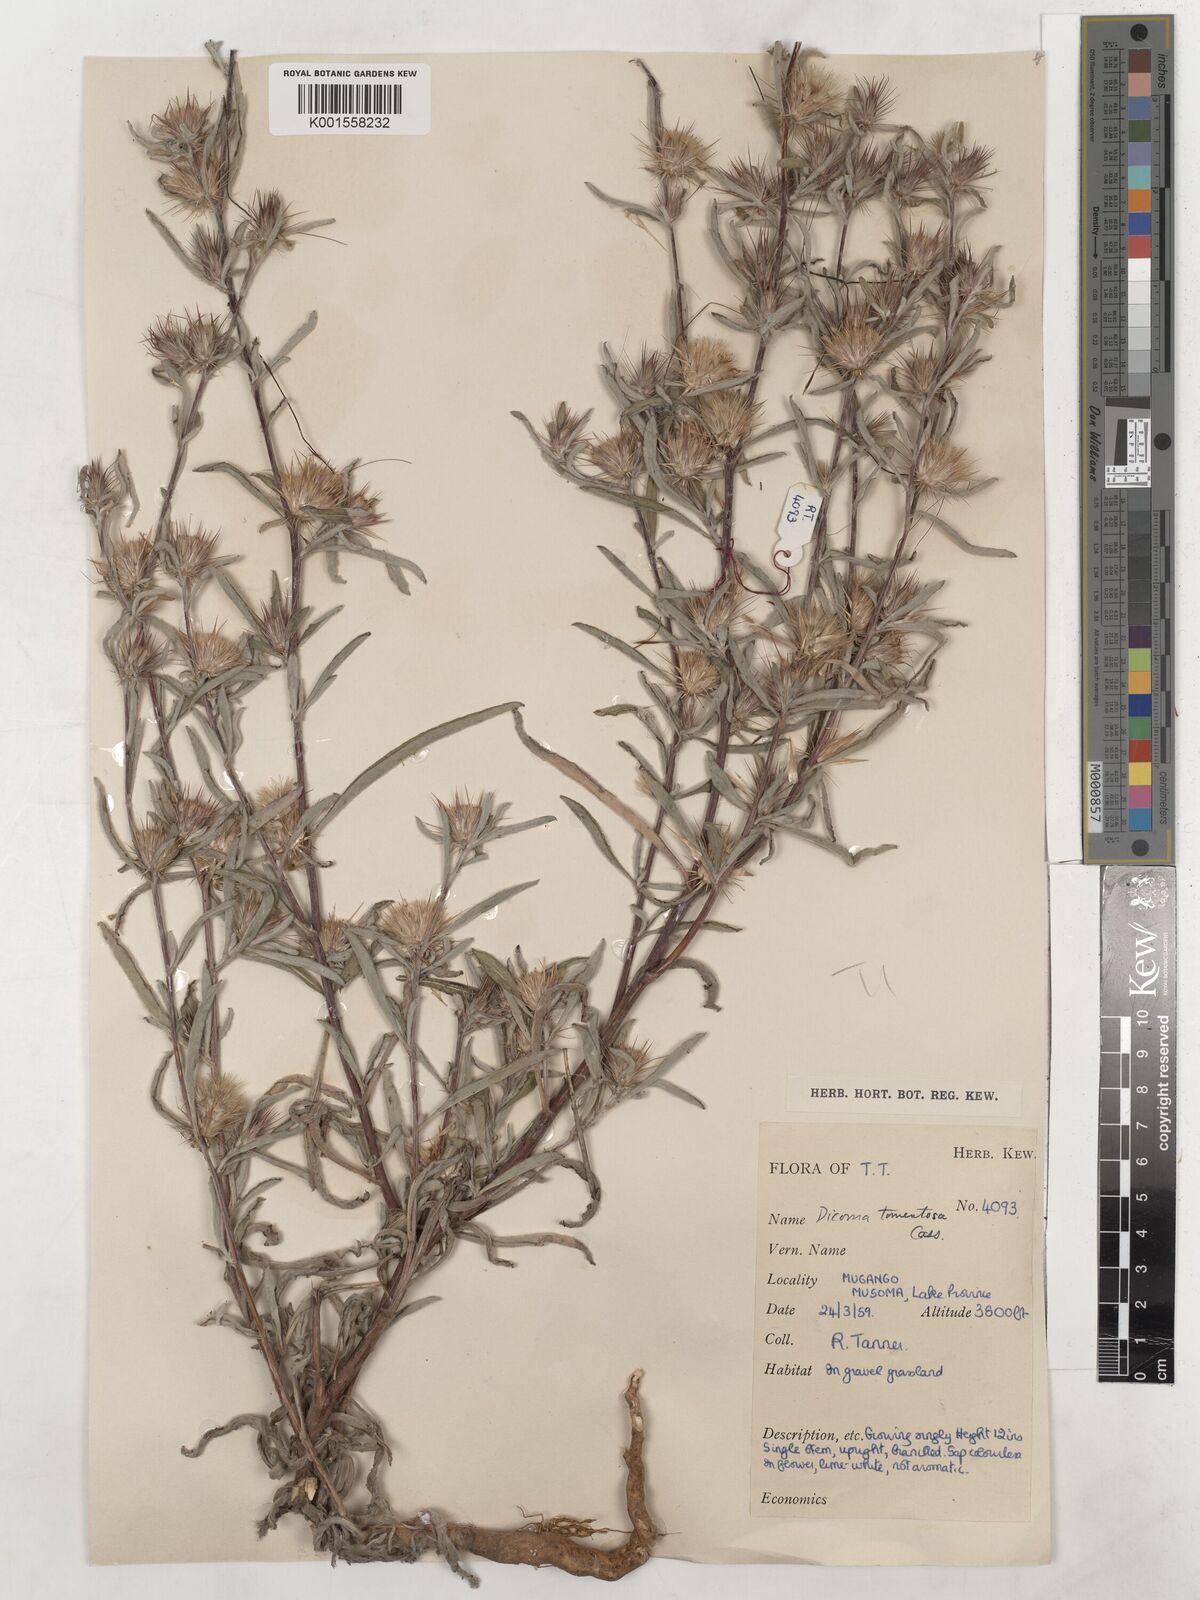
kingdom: Plantae
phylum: Tracheophyta
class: Magnoliopsida
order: Asterales
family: Asteraceae
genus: Dicoma
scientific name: Dicoma tomentosa
